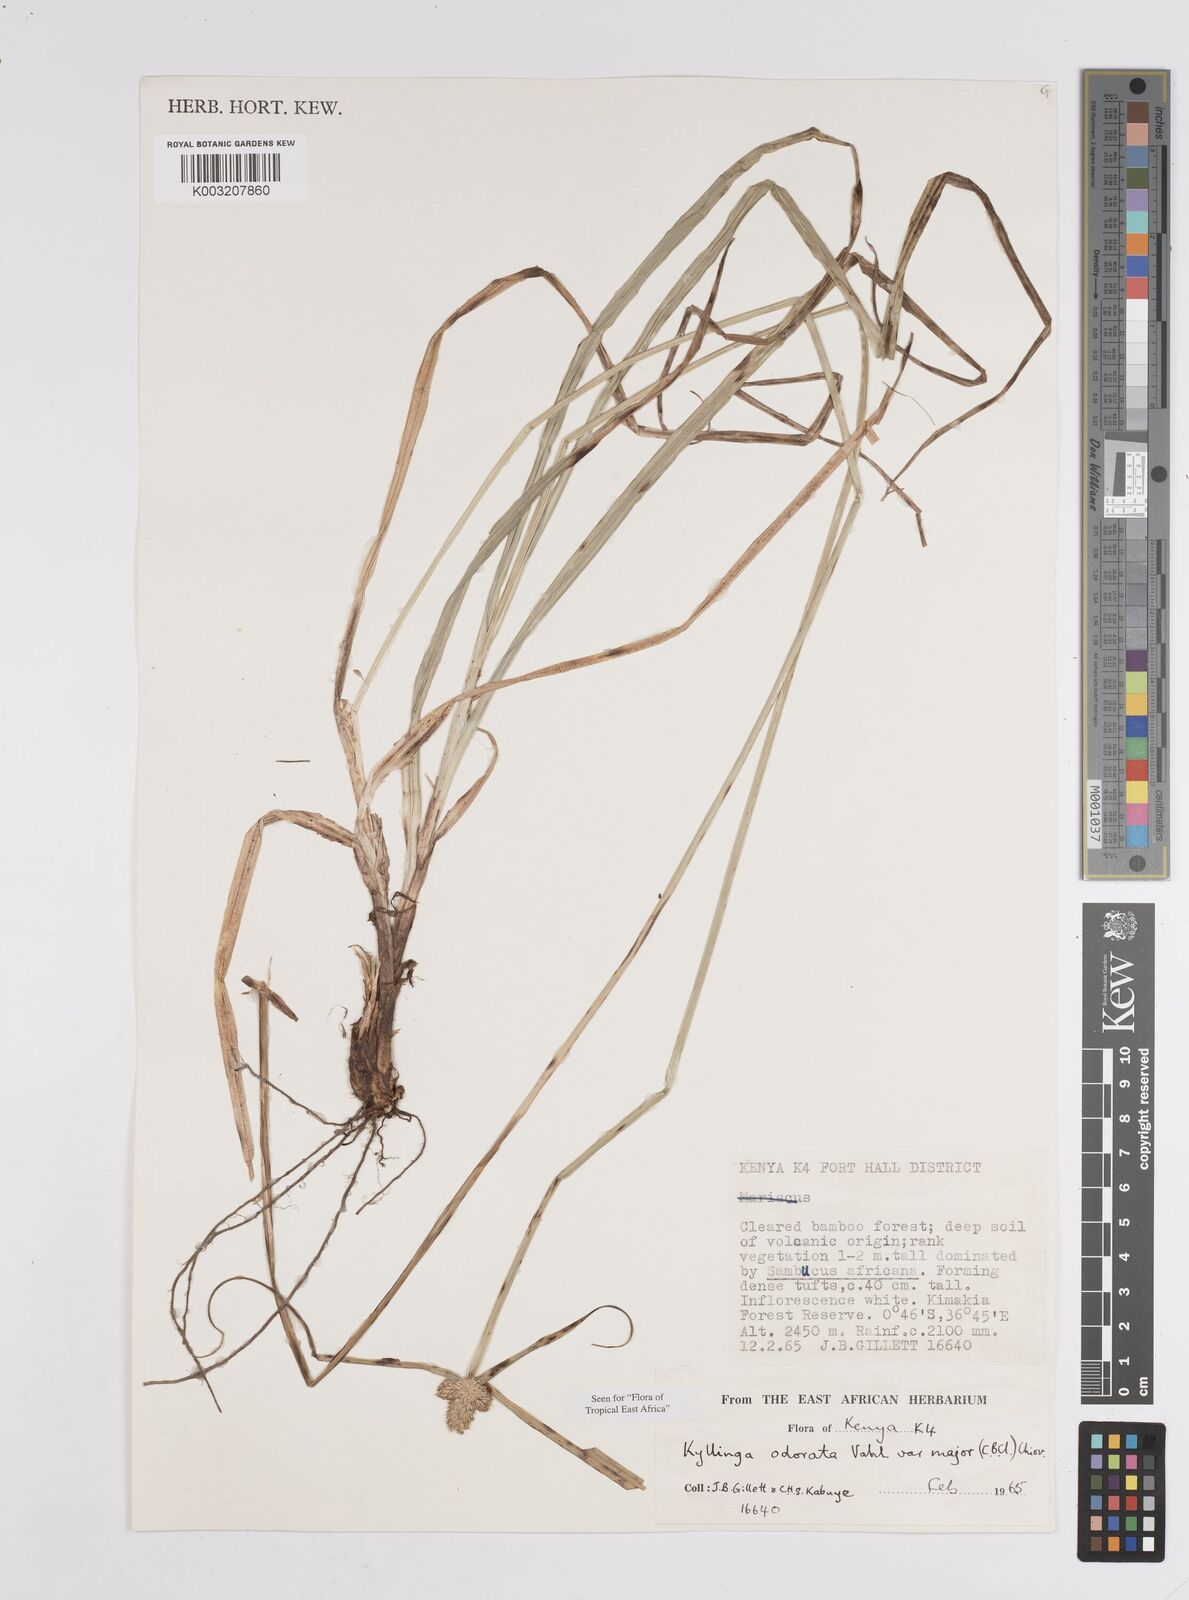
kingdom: Plantae
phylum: Tracheophyta
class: Liliopsida
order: Poales
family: Cyperaceae
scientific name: Cyperaceae
